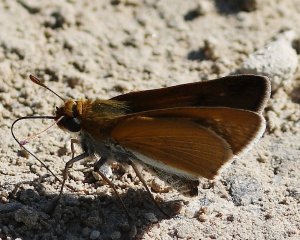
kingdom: Animalia
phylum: Arthropoda
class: Insecta
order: Lepidoptera
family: Hesperiidae
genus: Euphyes
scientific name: Euphyes bimacula
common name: Two-spotted Skipper
